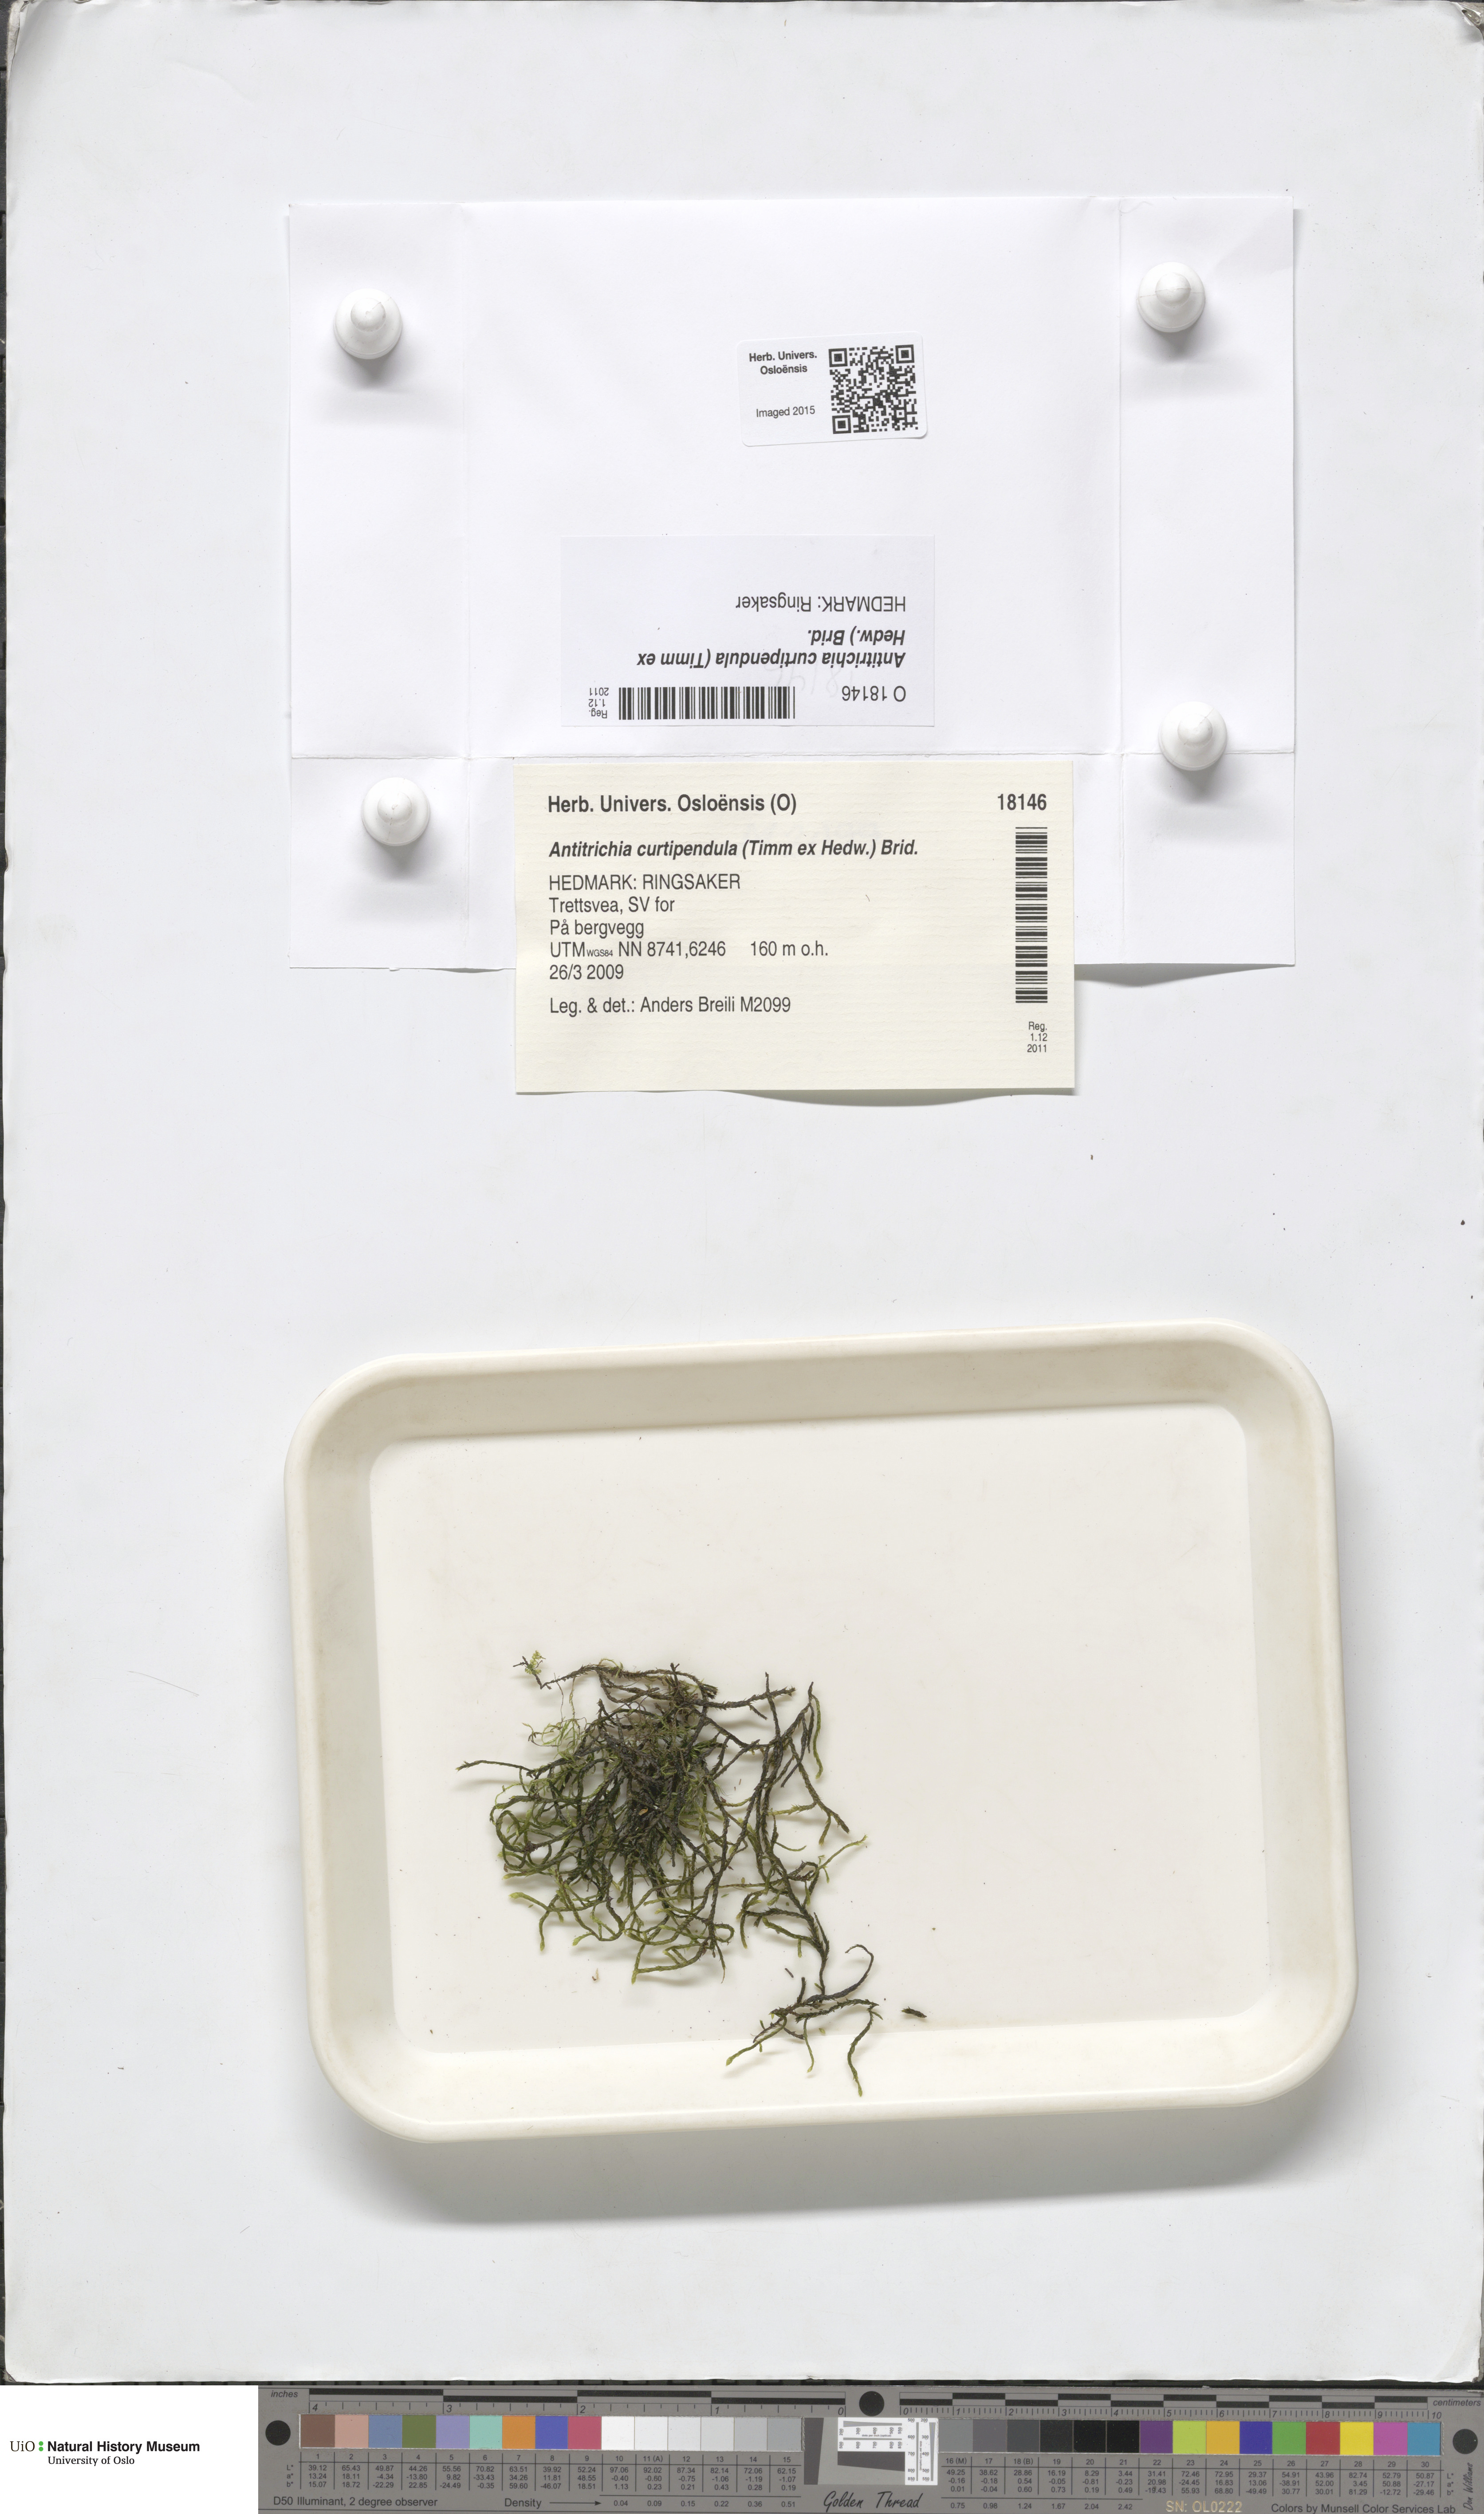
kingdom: Plantae
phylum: Bryophyta
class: Bryopsida
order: Hypnales
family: Antitrichiaceae
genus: Antitrichia
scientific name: Antitrichia curtipendula
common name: Pendulous wing-moss
